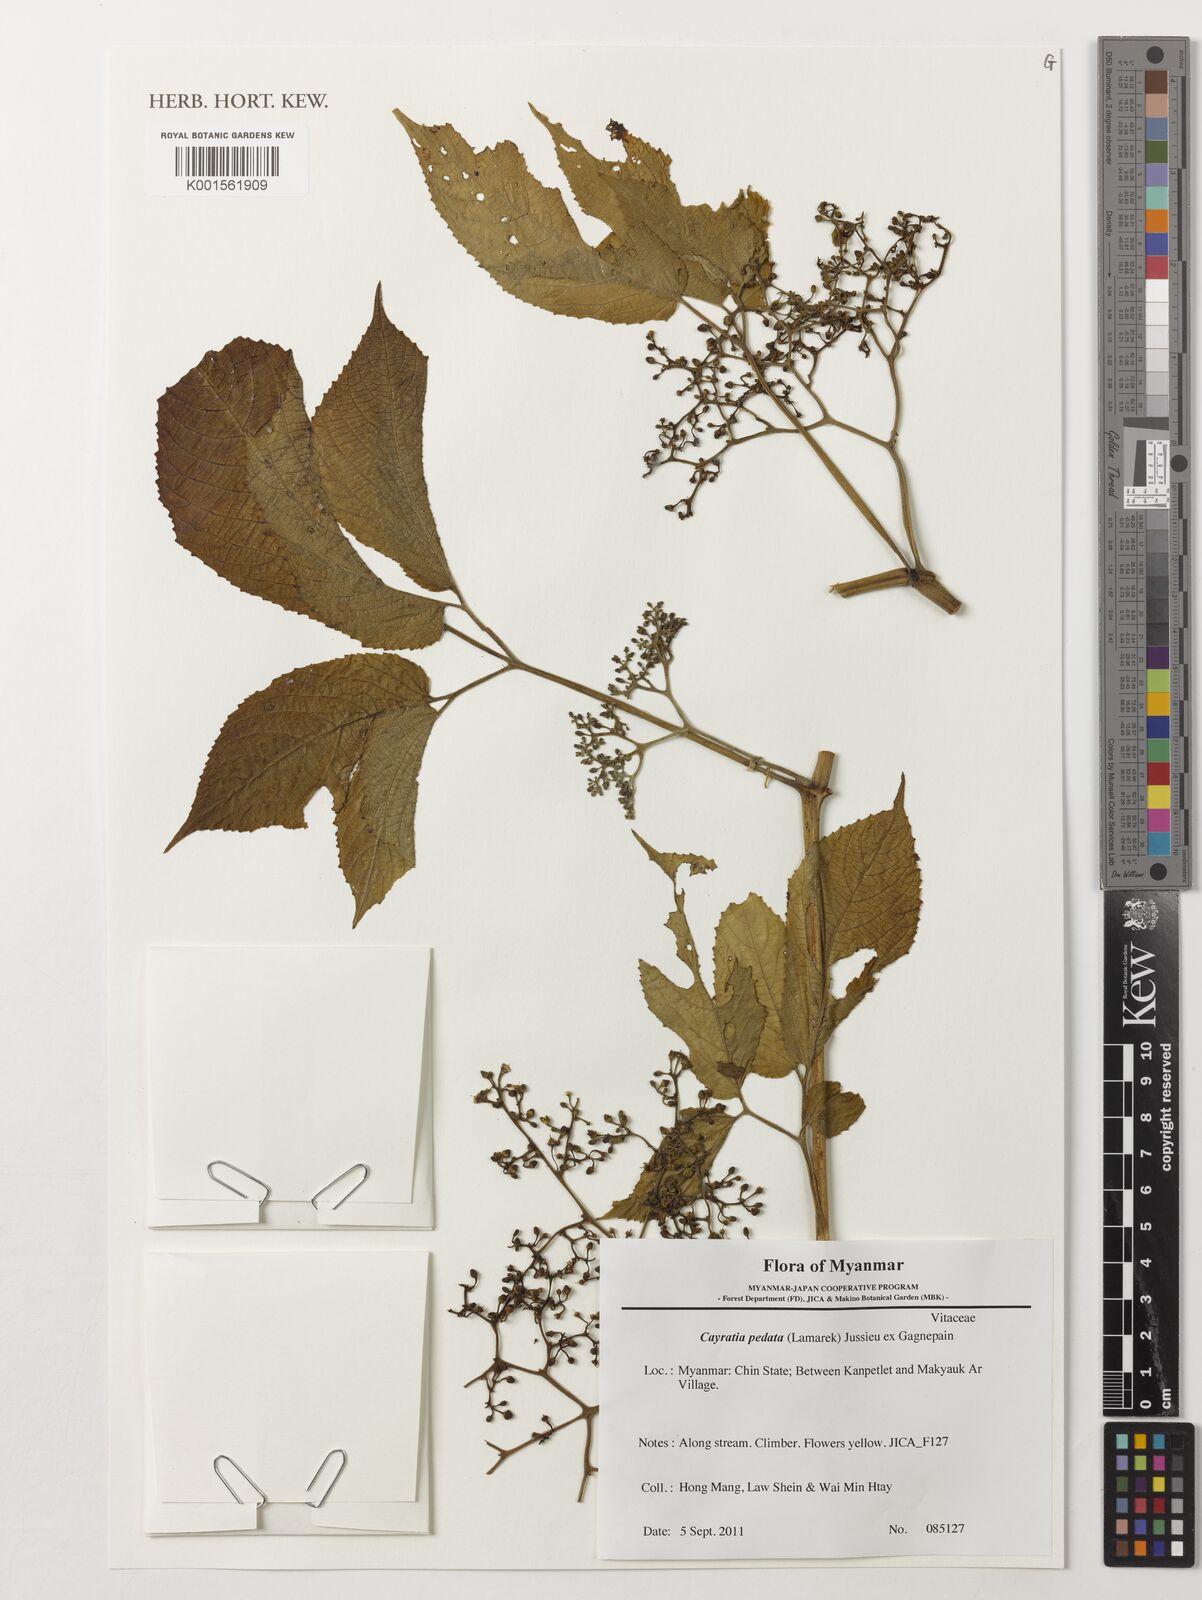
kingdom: Plantae
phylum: Tracheophyta
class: Magnoliopsida
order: Vitales
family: Vitaceae
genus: Cayratia
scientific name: Cayratia pedata
